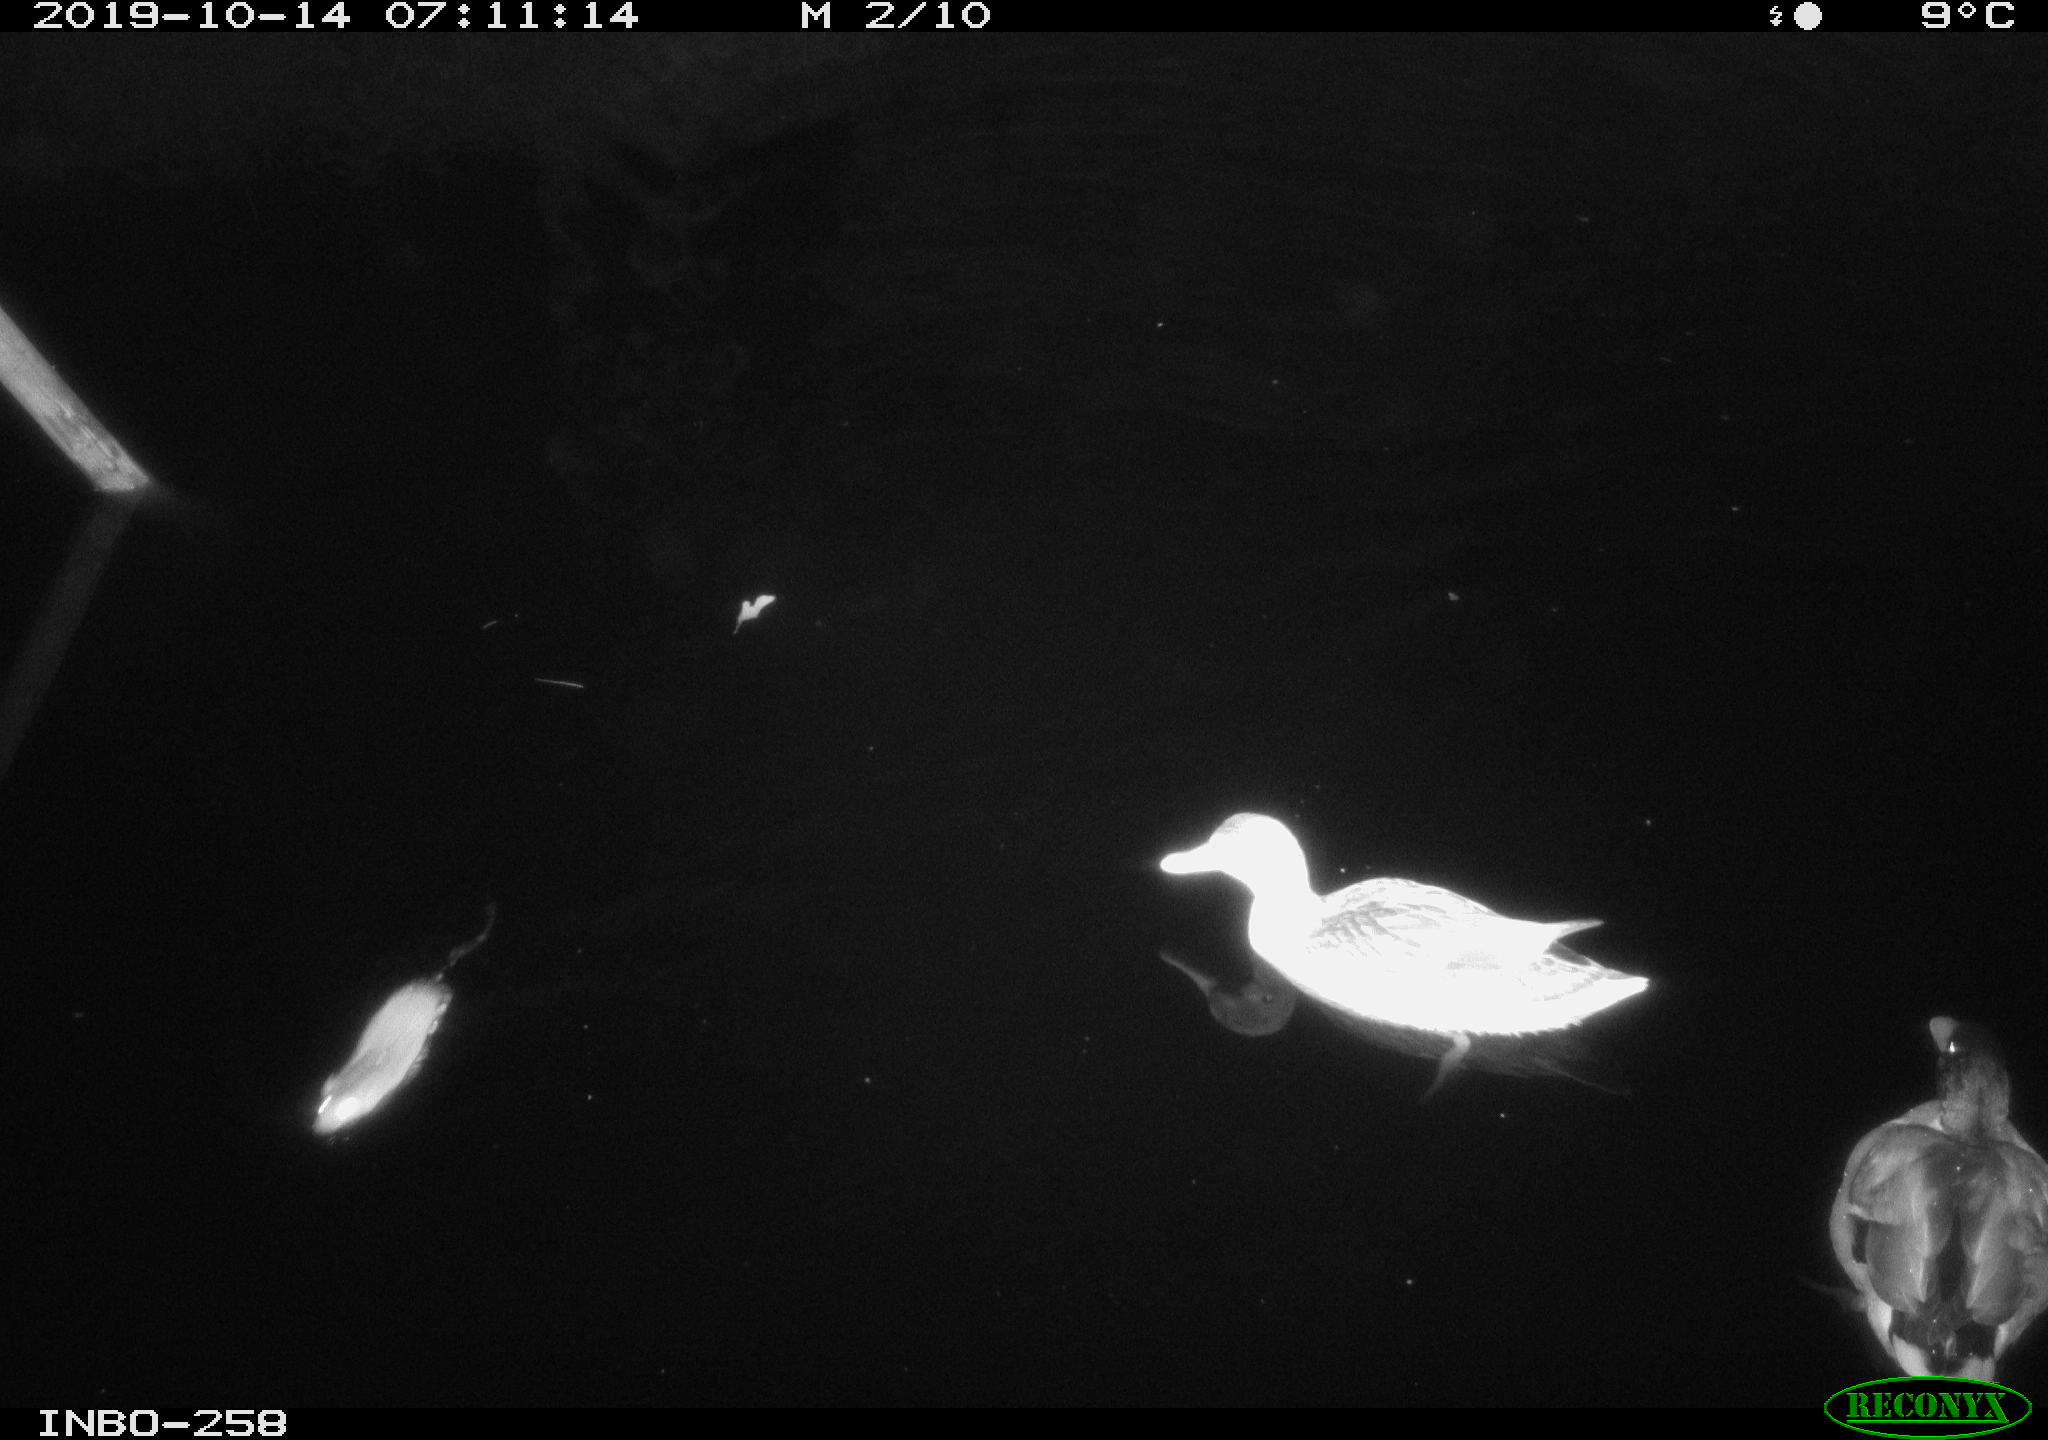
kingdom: Animalia
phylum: Chordata
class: Aves
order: Anseriformes
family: Anatidae
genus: Anas
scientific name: Anas platyrhynchos
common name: Mallard
